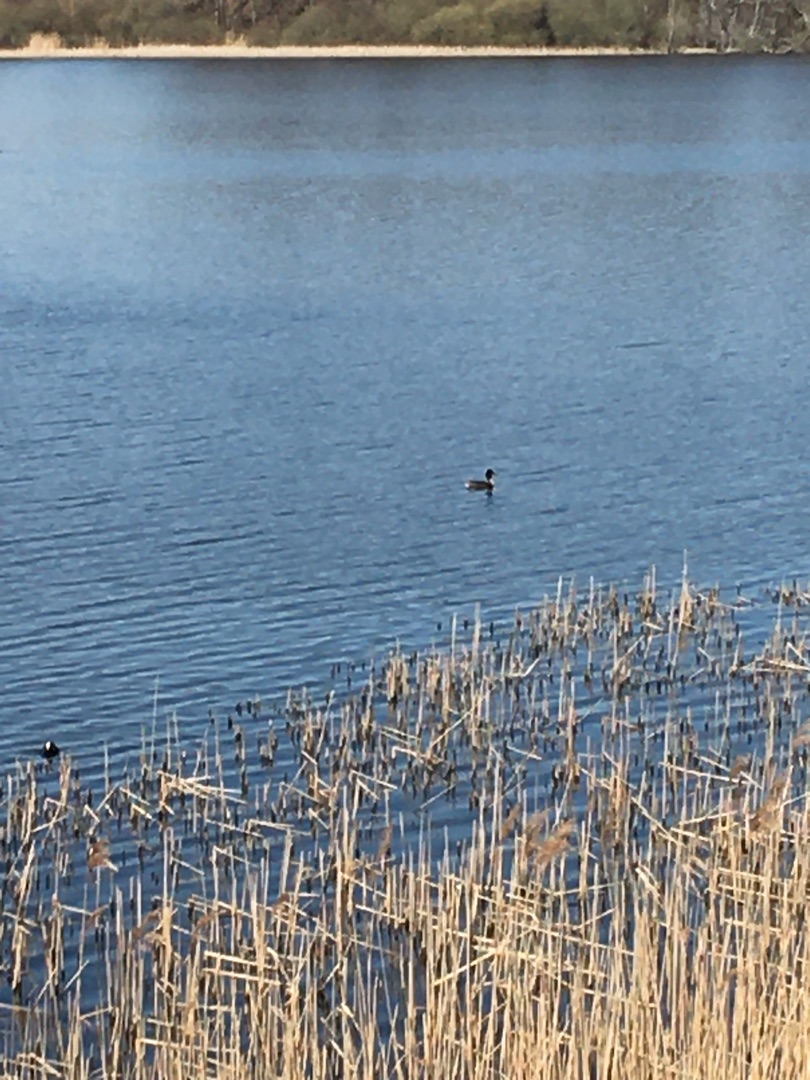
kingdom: Animalia
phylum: Chordata
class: Aves
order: Podicipediformes
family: Podicipedidae
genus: Podiceps
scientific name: Podiceps cristatus
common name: Toppet lappedykker
